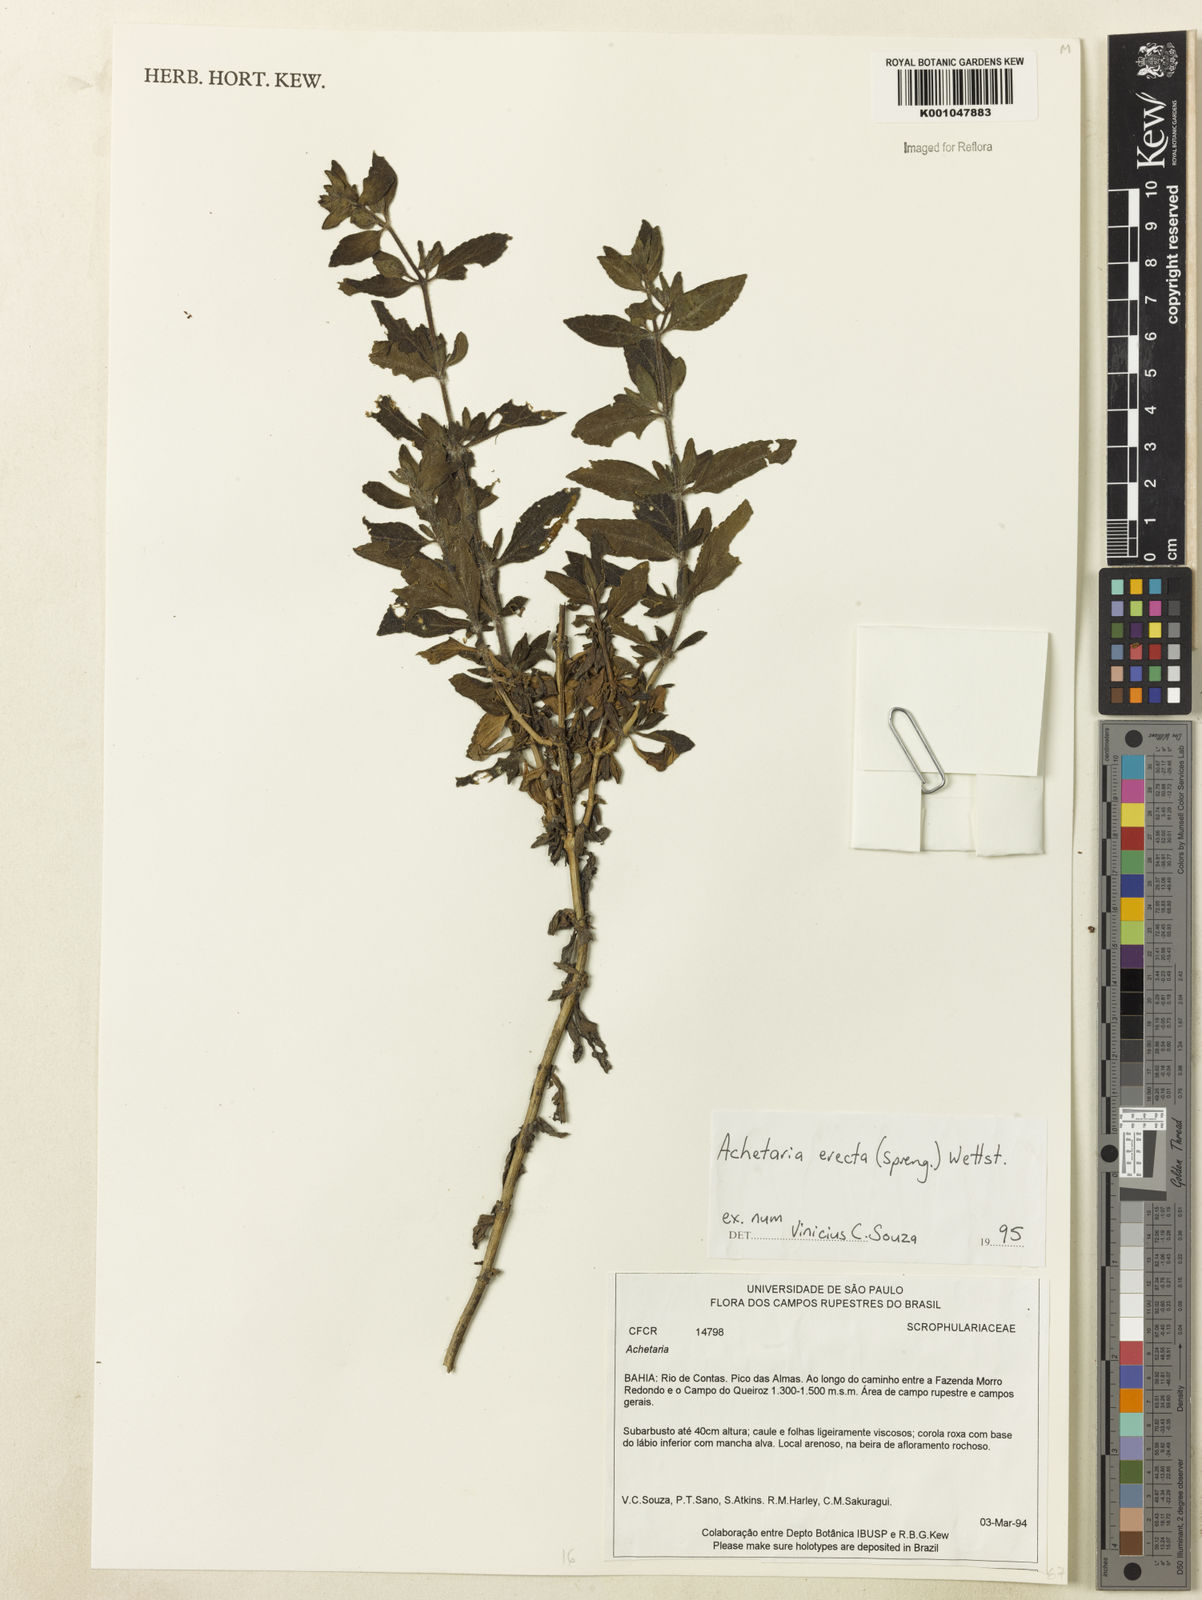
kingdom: Plantae
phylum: Tracheophyta
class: Magnoliopsida
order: Lamiales
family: Plantaginaceae
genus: Matourea
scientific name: Matourea erecta
